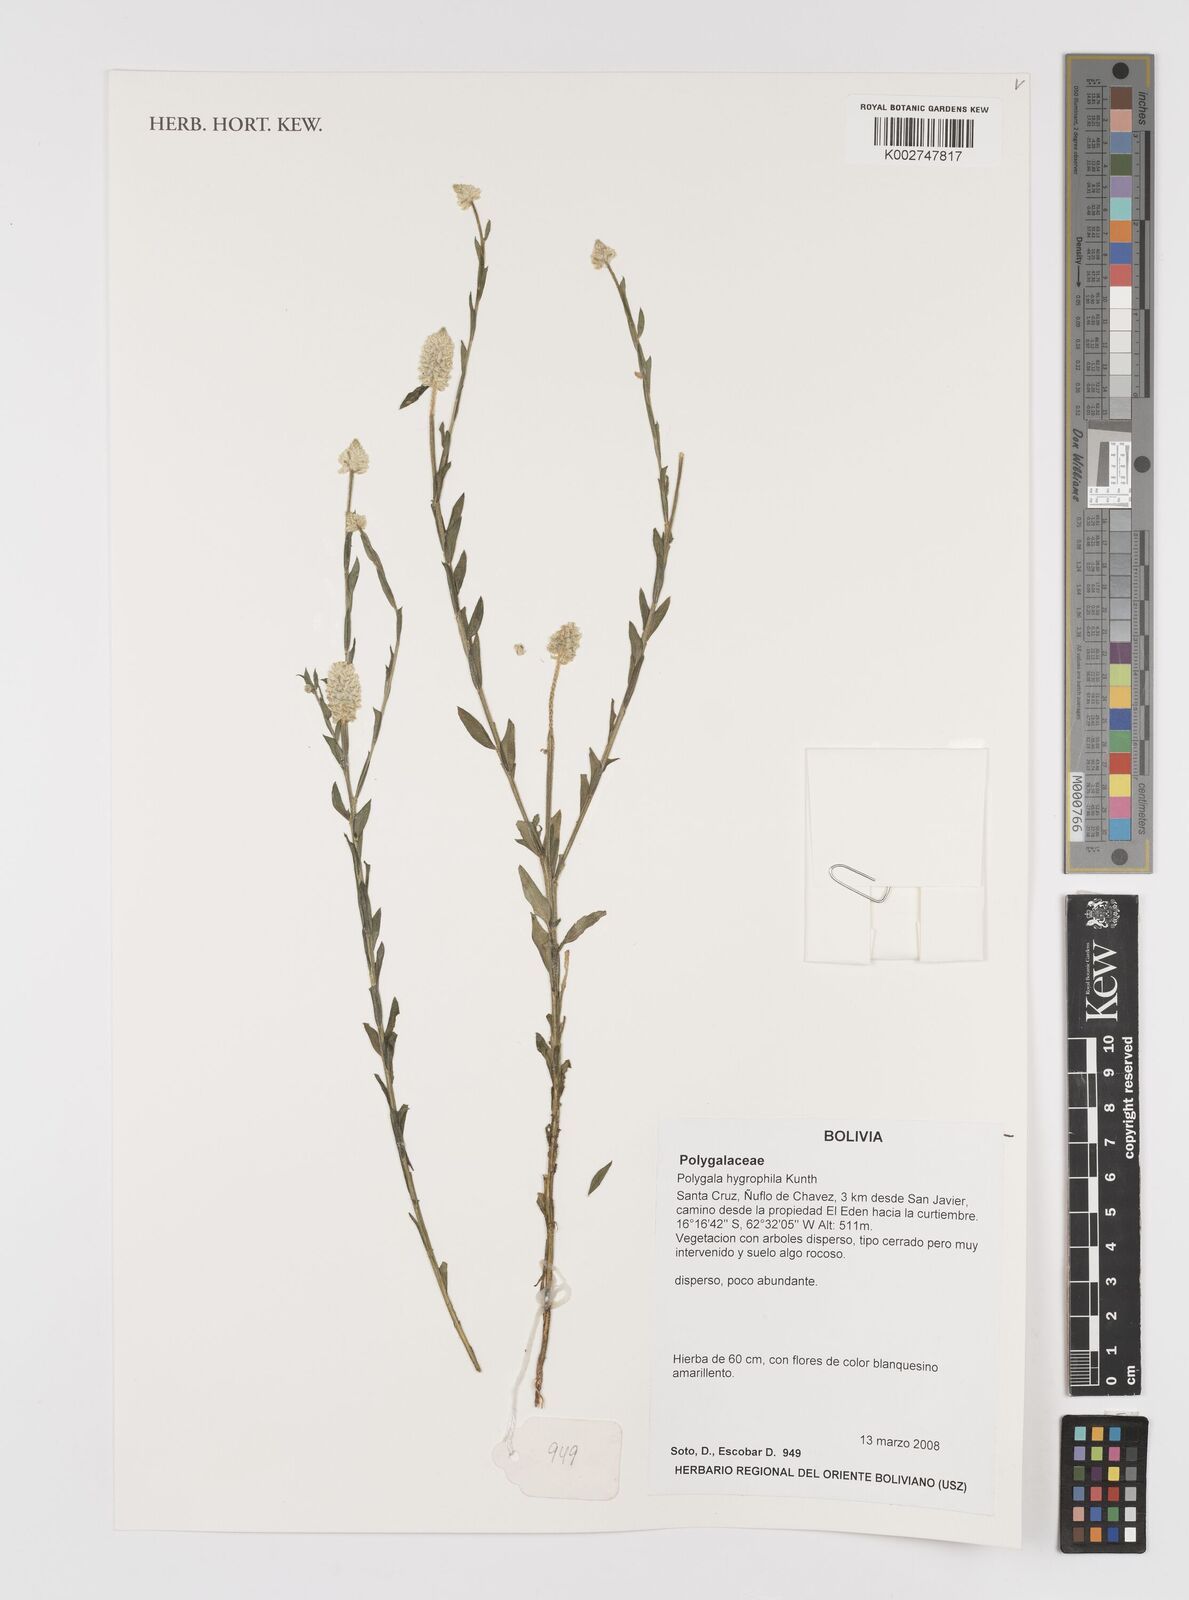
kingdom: Plantae
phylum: Tracheophyta
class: Magnoliopsida
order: Fabales
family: Polygalaceae
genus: Polygala
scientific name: Polygala hygrophila
